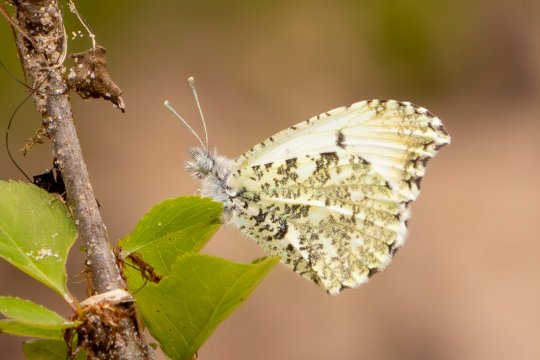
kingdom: Animalia
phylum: Arthropoda
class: Insecta
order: Lepidoptera
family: Pieridae
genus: Anthocharis
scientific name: Anthocharis midea
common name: Falcate Orangetip
